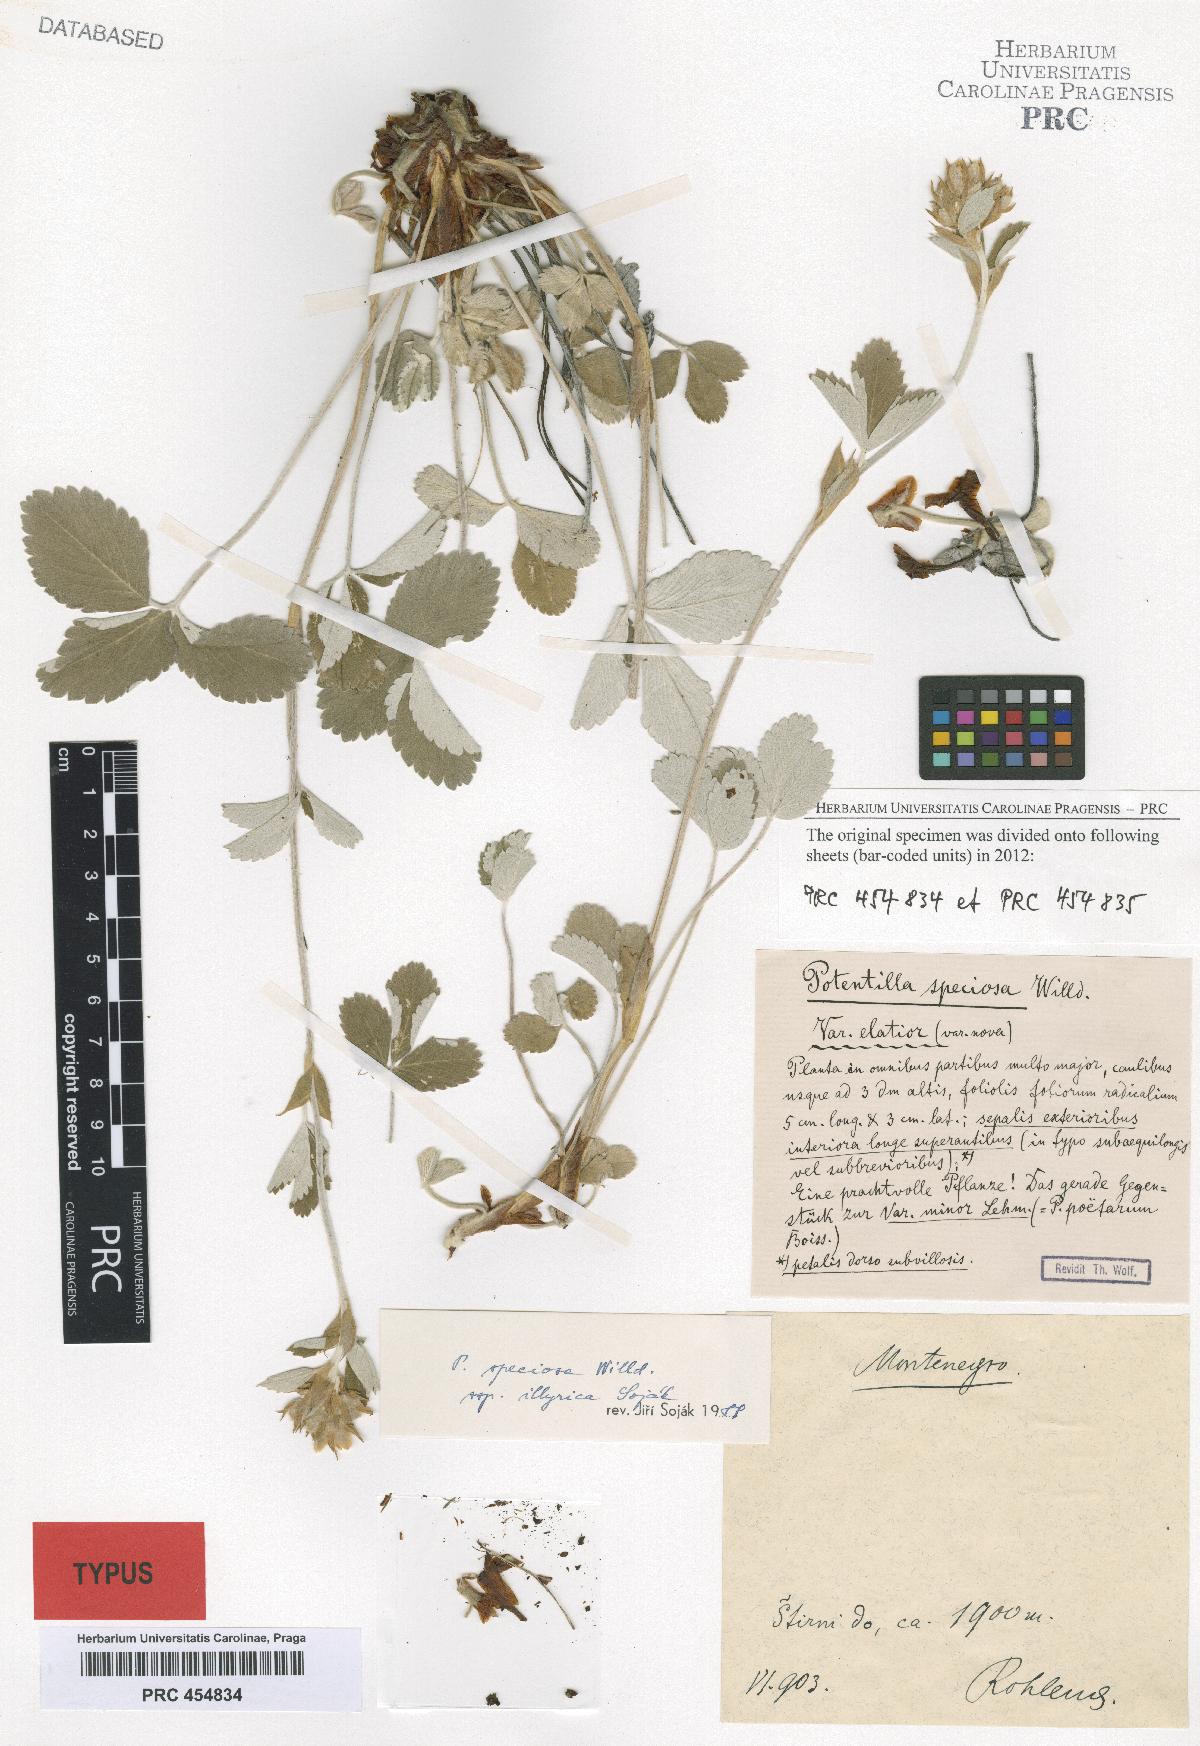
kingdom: Plantae
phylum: Tracheophyta
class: Magnoliopsida
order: Rosales
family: Rosaceae
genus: Potentilla
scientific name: Potentilla speciosa
